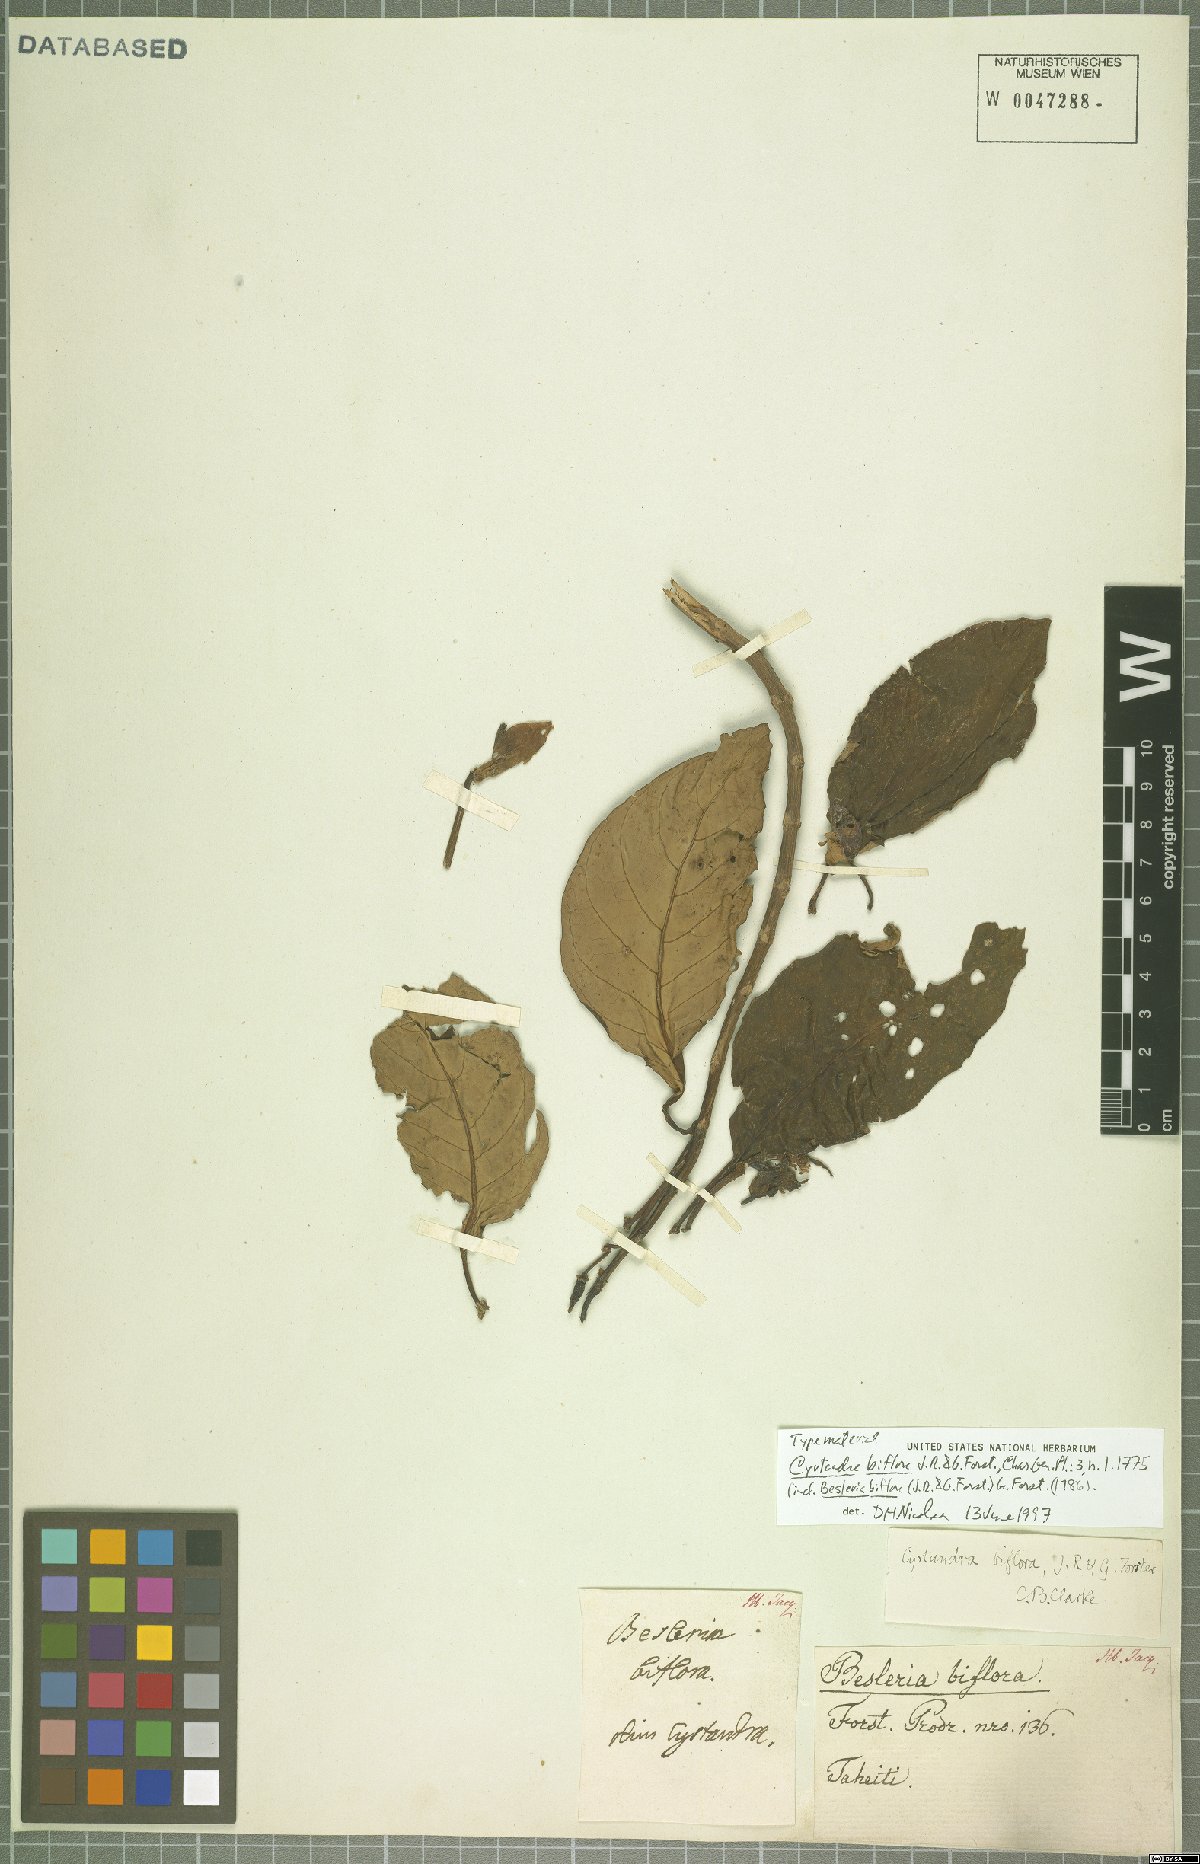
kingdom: Plantae
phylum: Tracheophyta
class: Magnoliopsida
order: Lamiales
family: Gesneriaceae
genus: Cyrtandra
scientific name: Cyrtandra biflora
